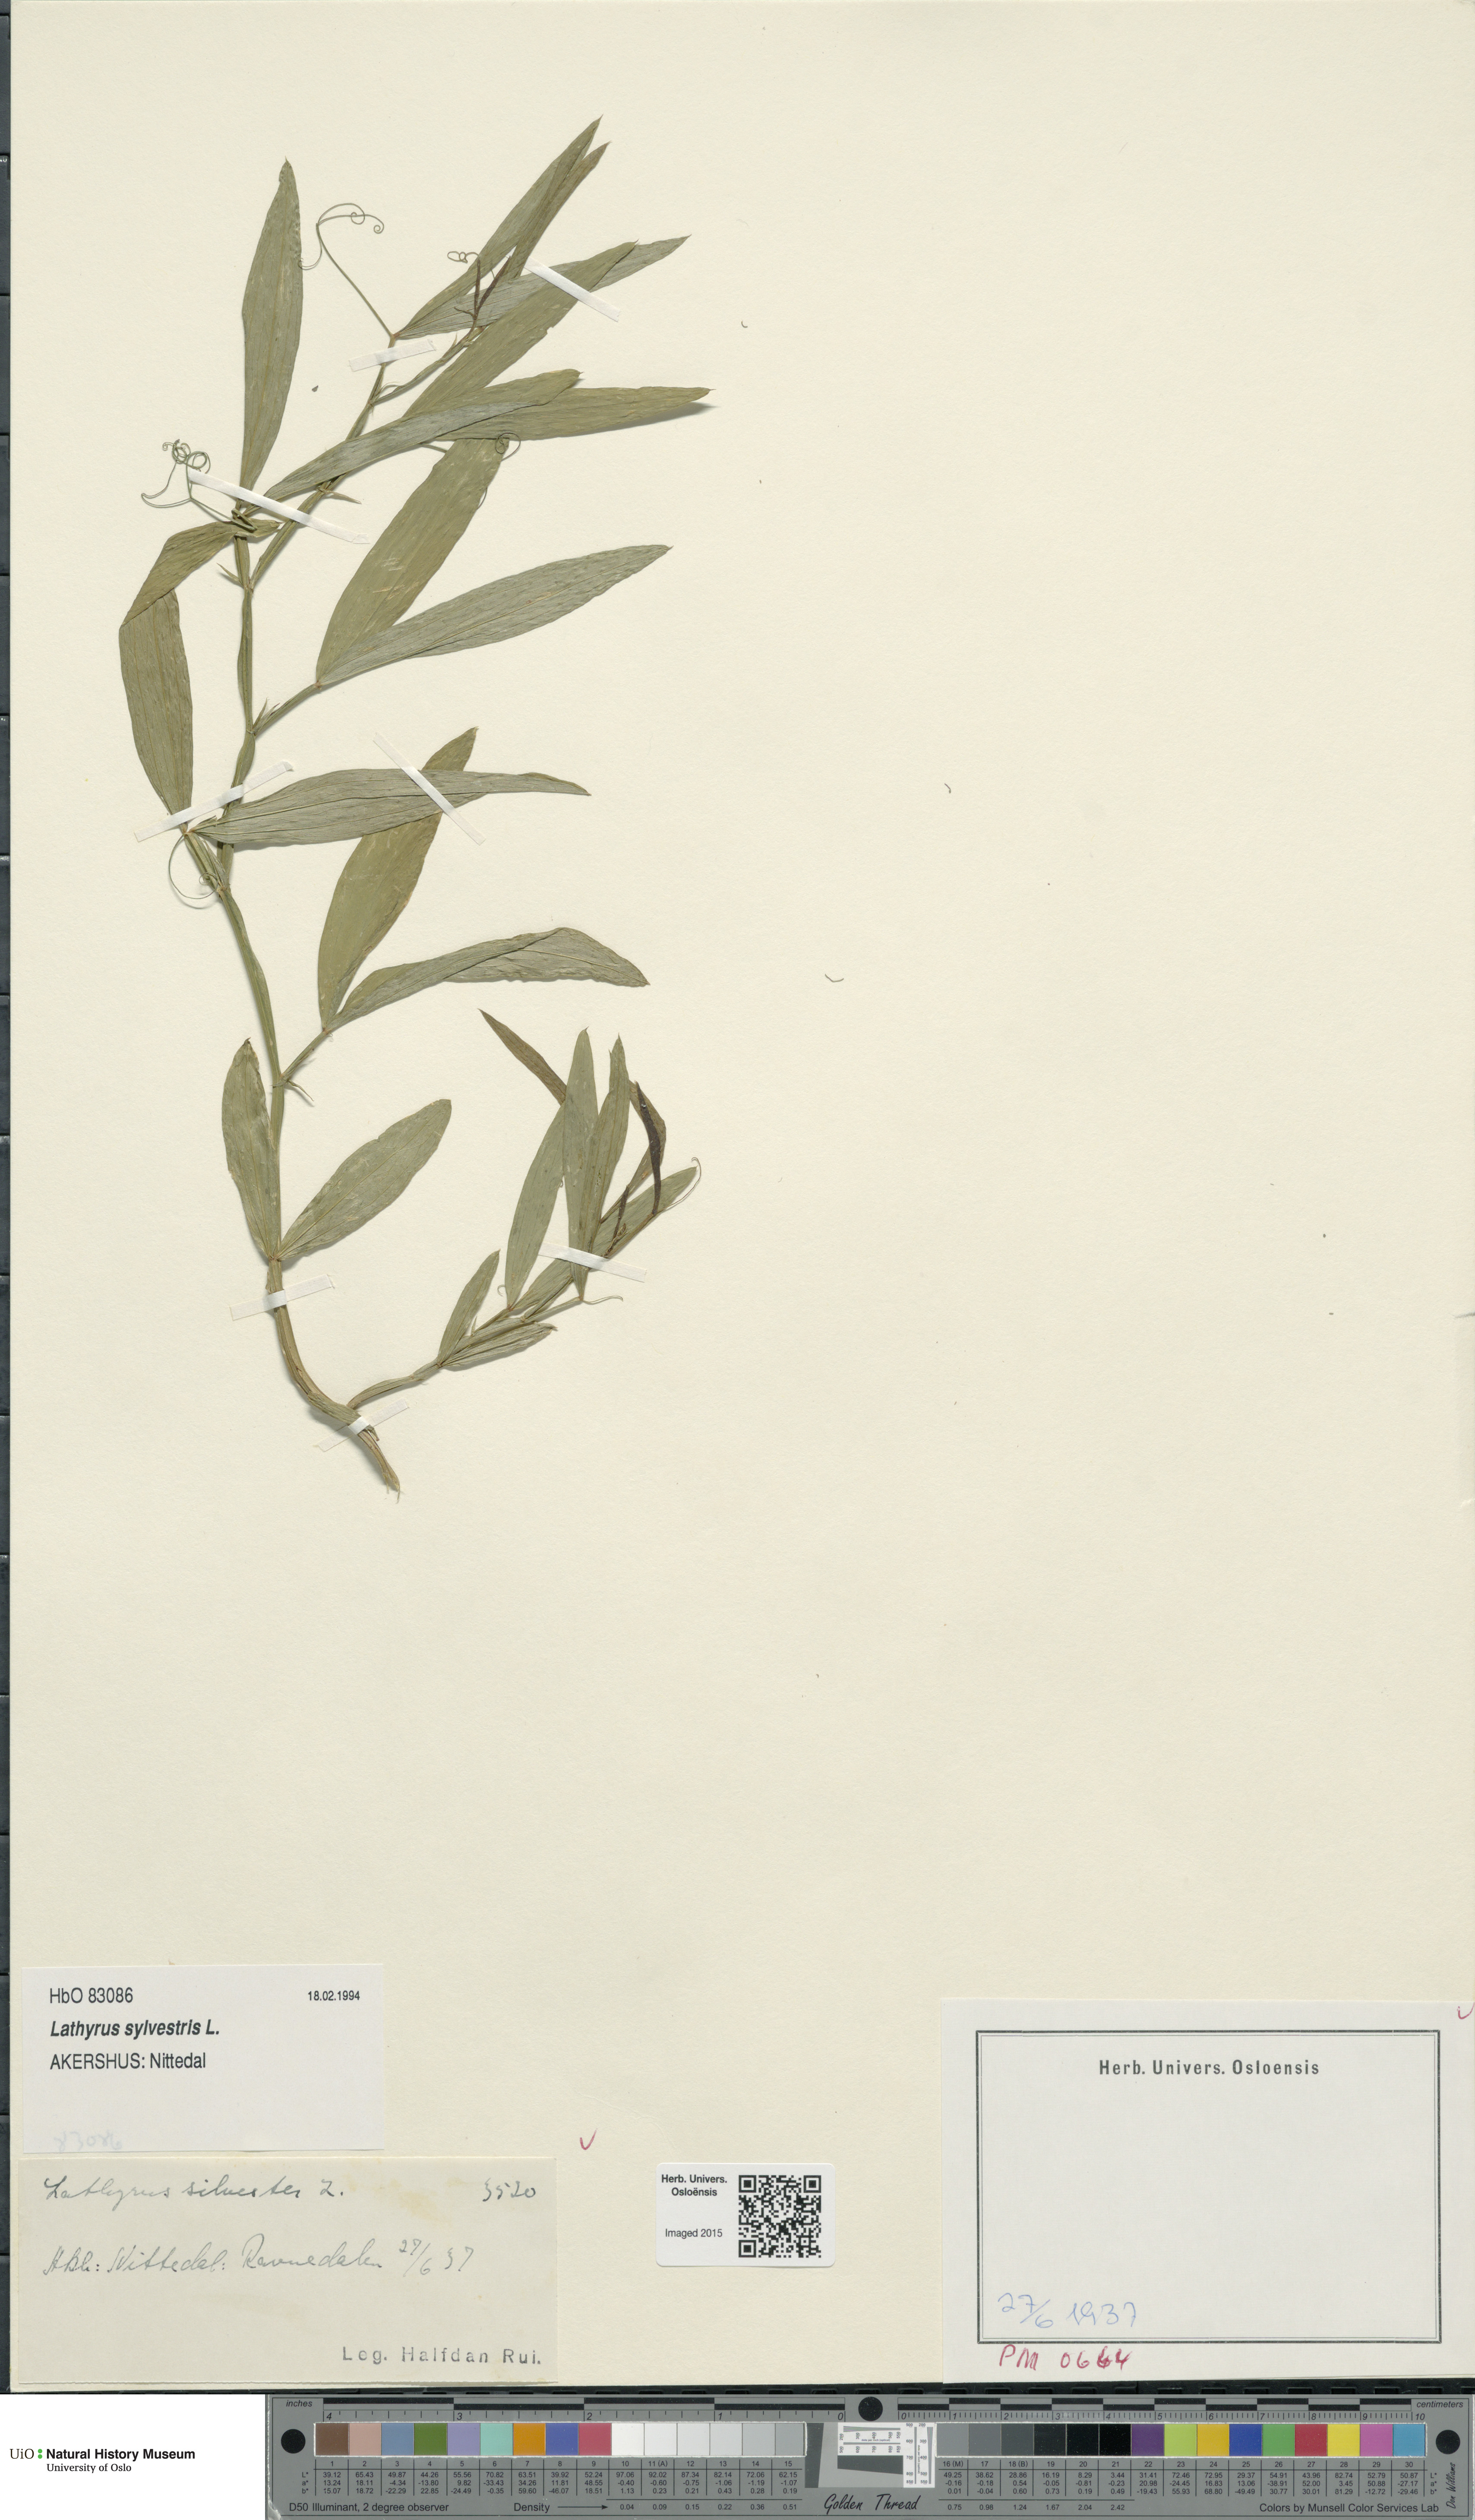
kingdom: Plantae
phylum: Tracheophyta
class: Magnoliopsida
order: Fabales
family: Fabaceae
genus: Lathyrus
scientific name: Lathyrus sylvestris
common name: Flat pea
